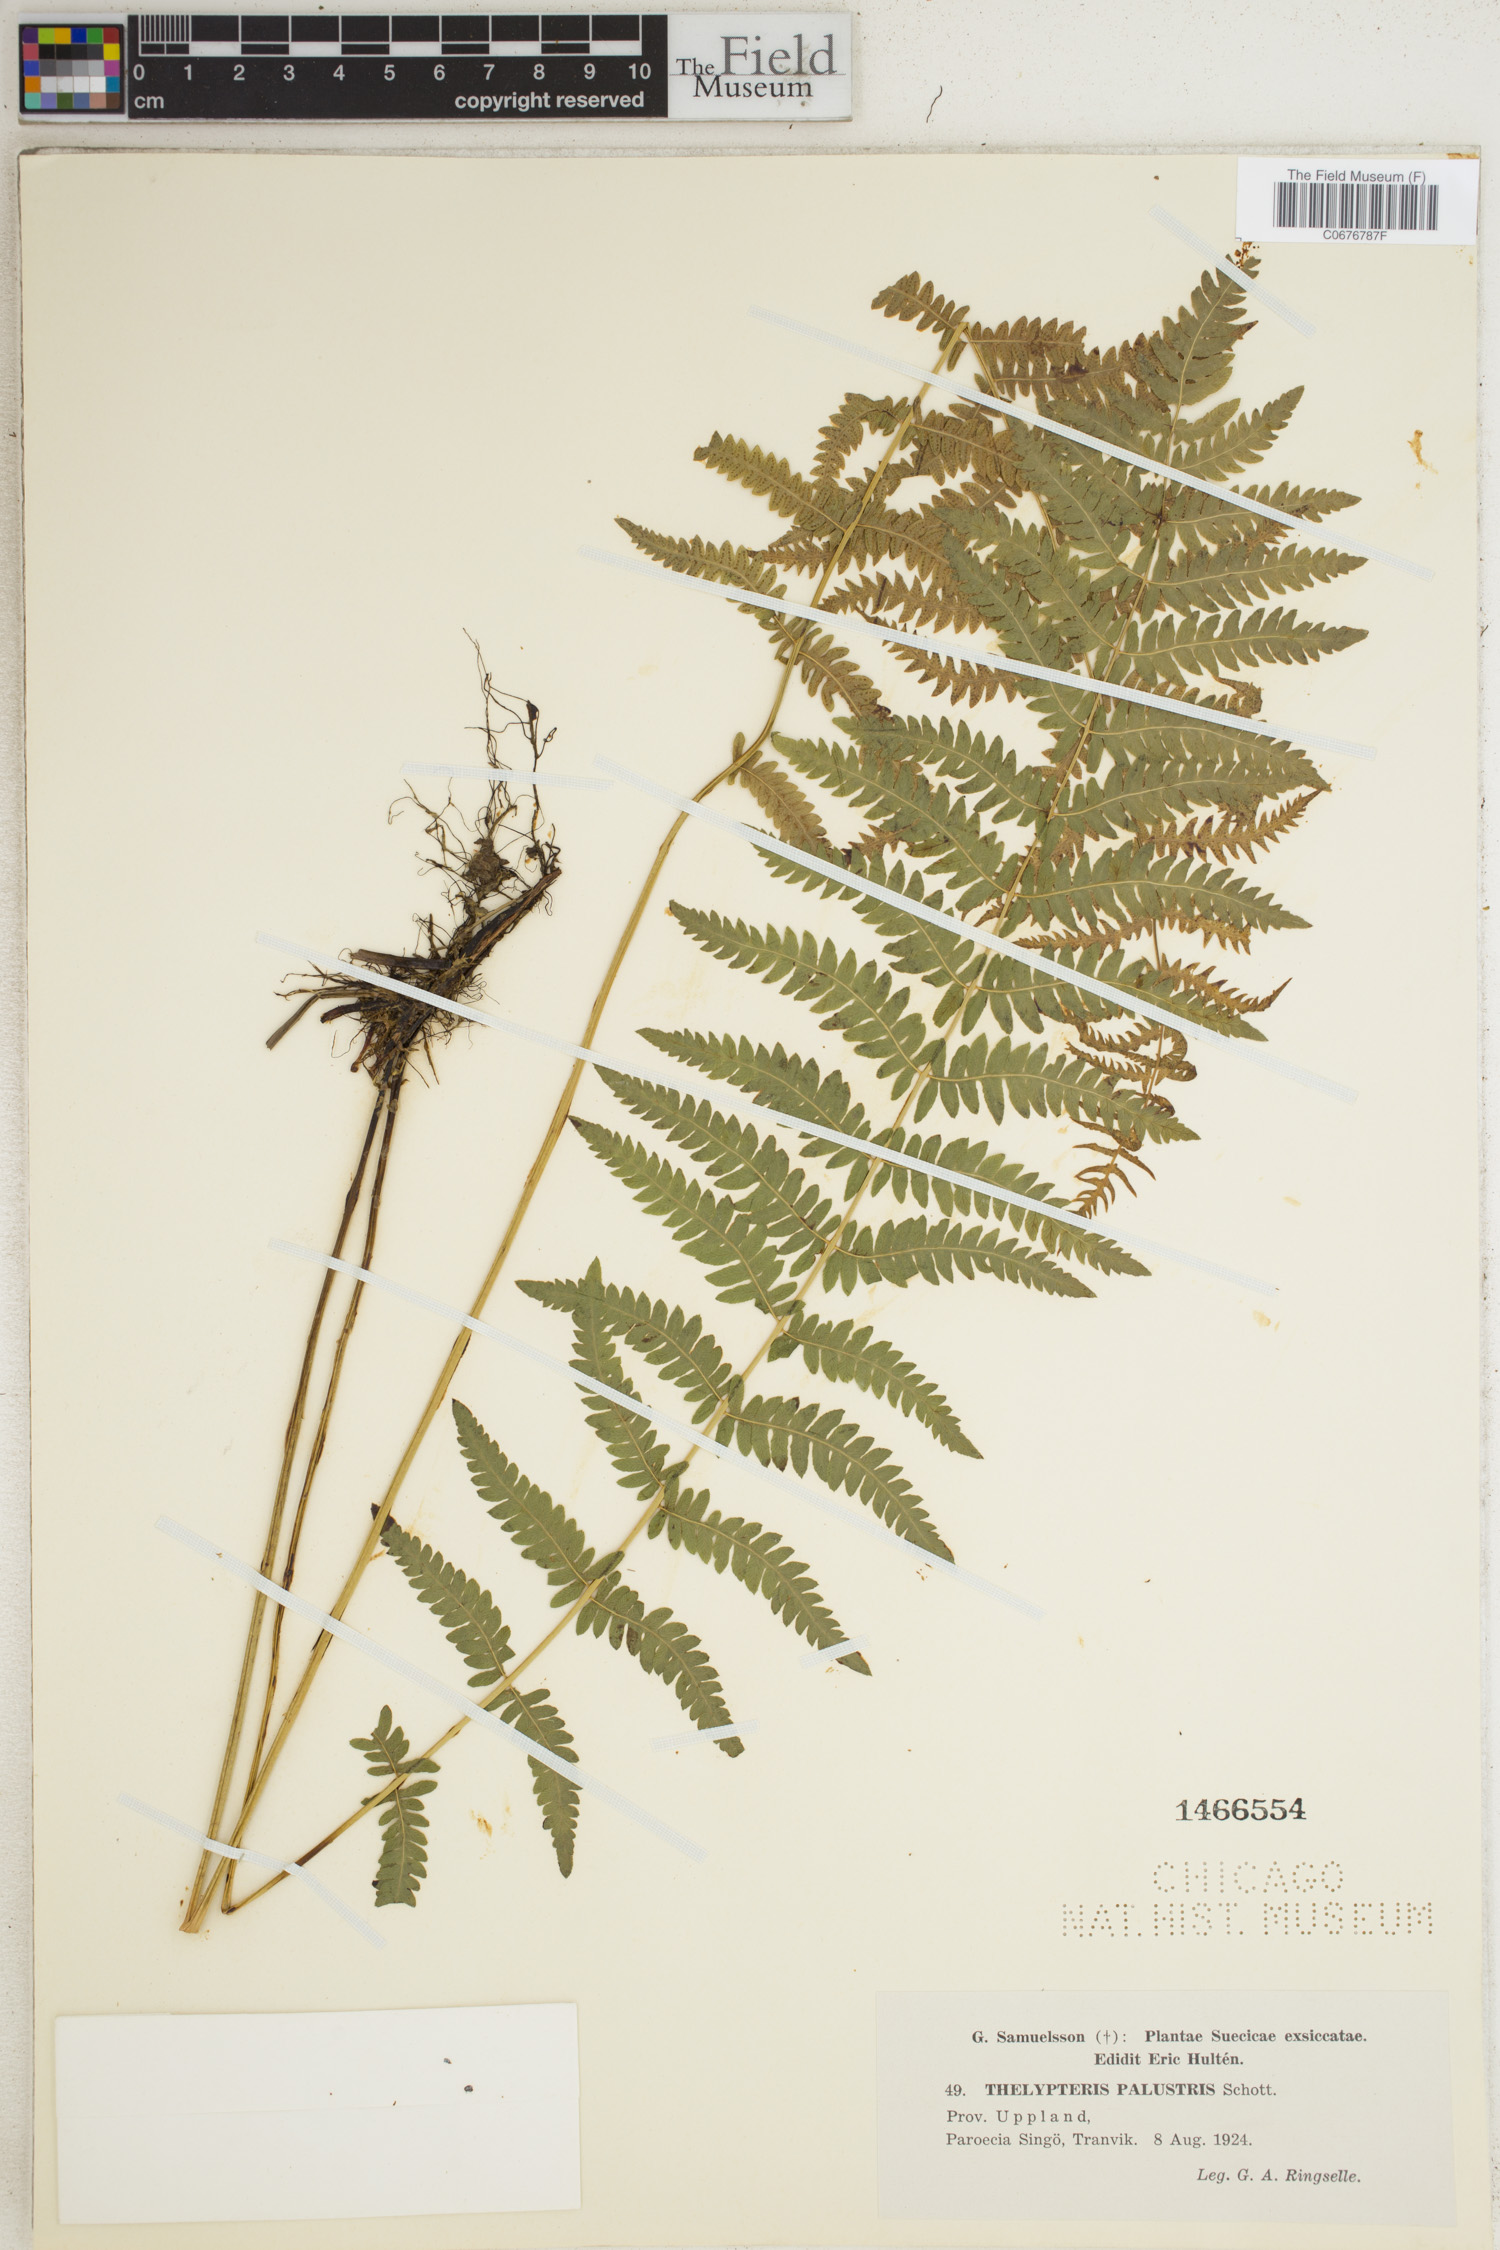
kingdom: Plantae
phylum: Tracheophyta
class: Polypodiopsida
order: Polypodiales
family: Thelypteridaceae
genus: Thelypteris
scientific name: Thelypteris palustris
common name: Marsh fern
